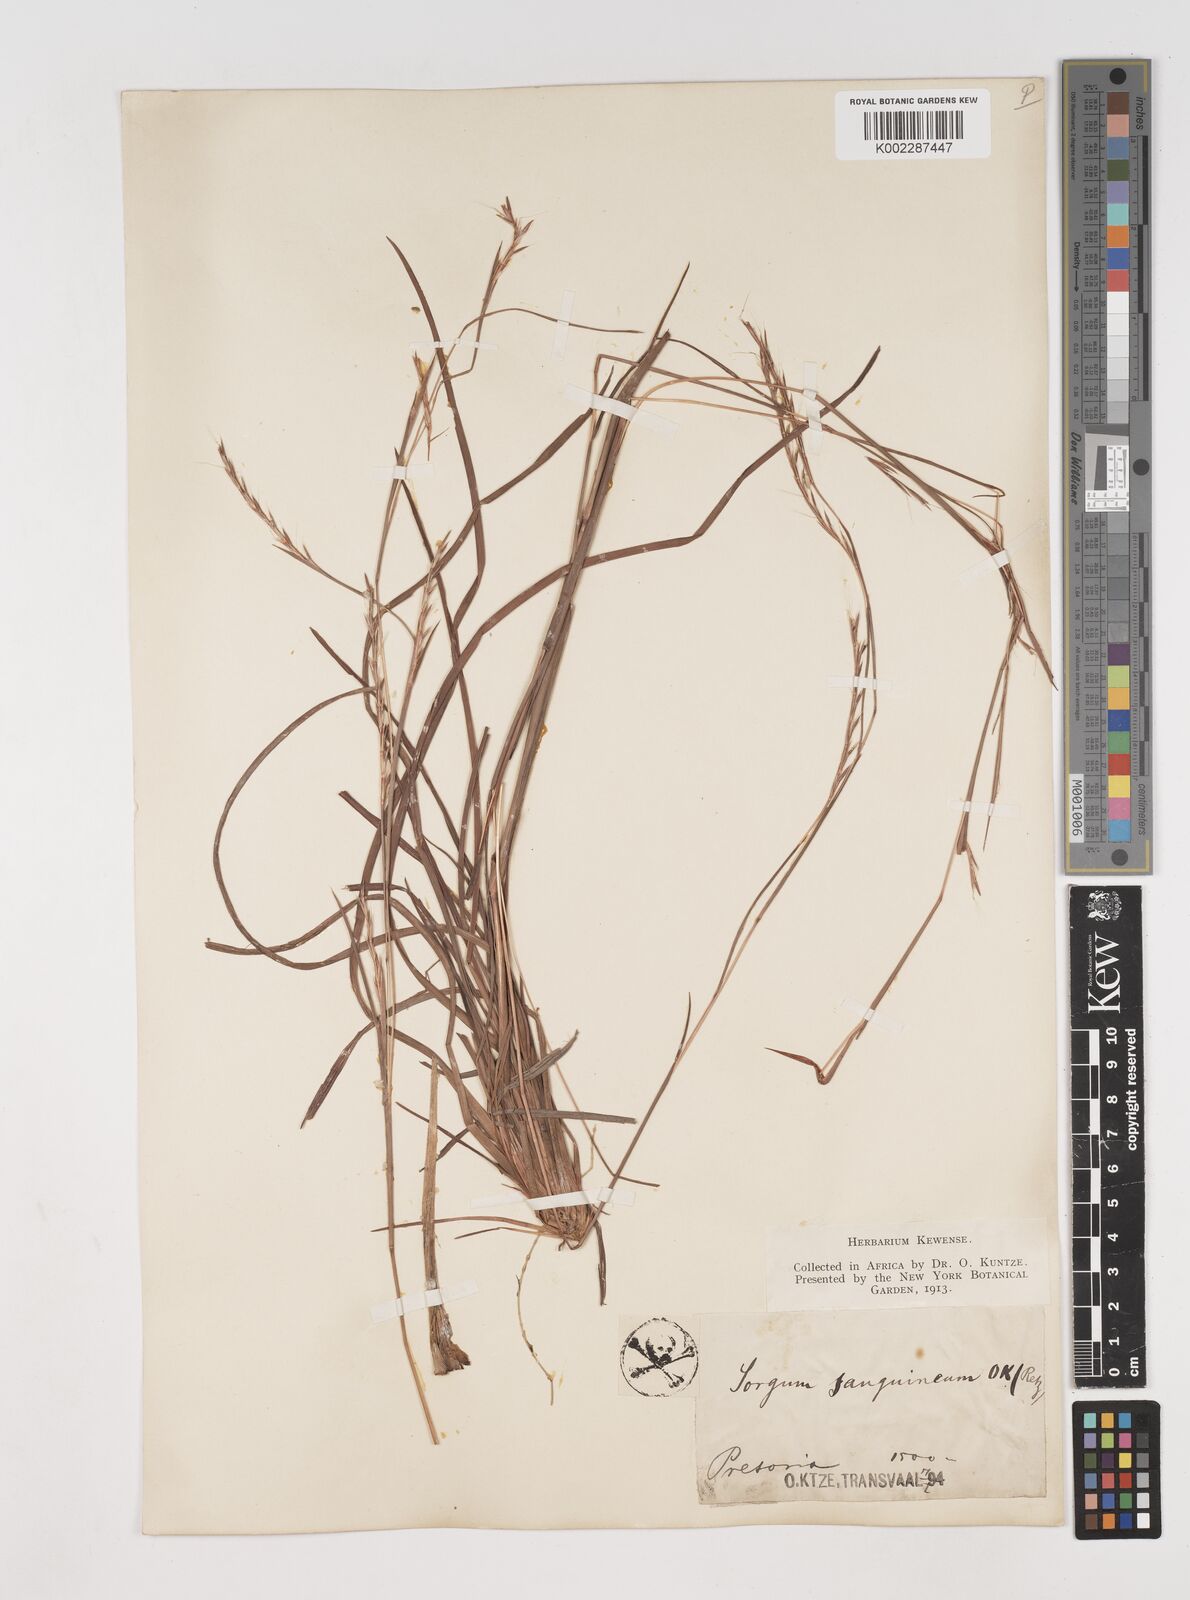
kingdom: Plantae
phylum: Tracheophyta
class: Liliopsida
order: Poales
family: Poaceae
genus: Schizachyrium
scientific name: Schizachyrium sanguineum
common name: Crimson bluestem
